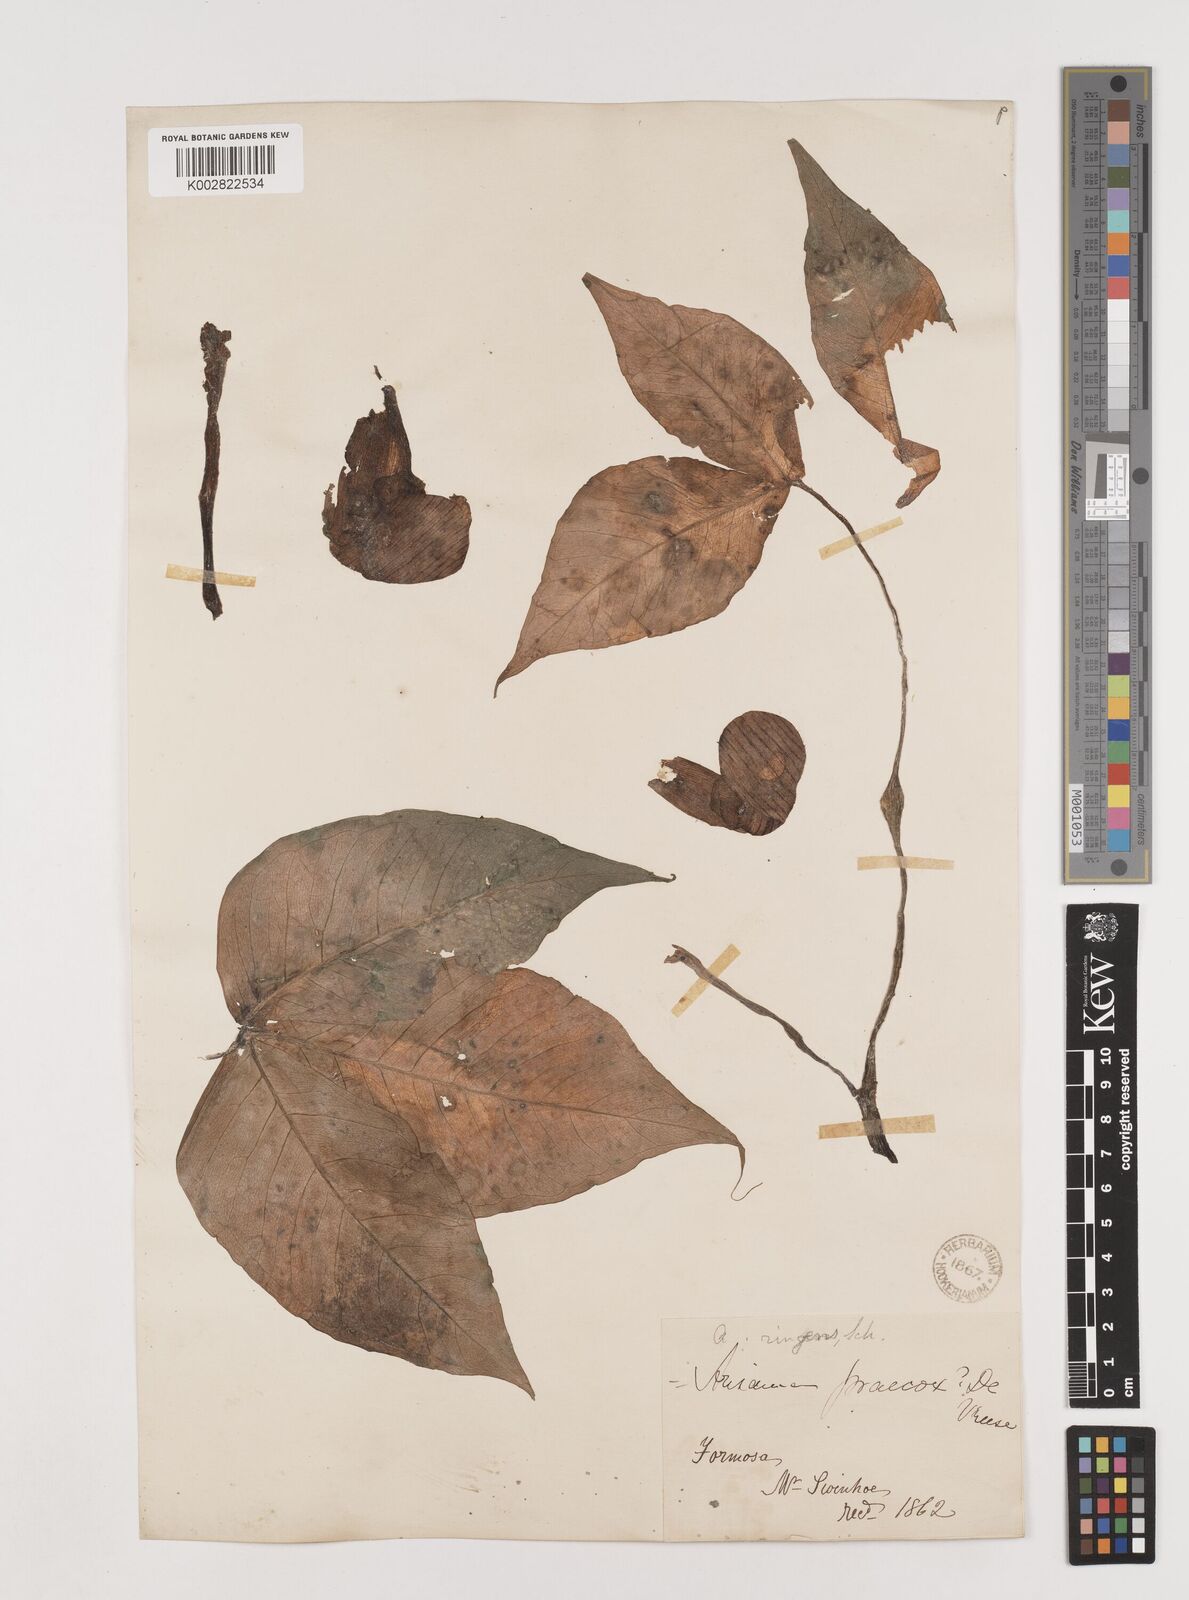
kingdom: Plantae
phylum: Tracheophyta
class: Liliopsida
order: Alismatales
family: Araceae
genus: Arisaema
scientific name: Arisaema ringens
